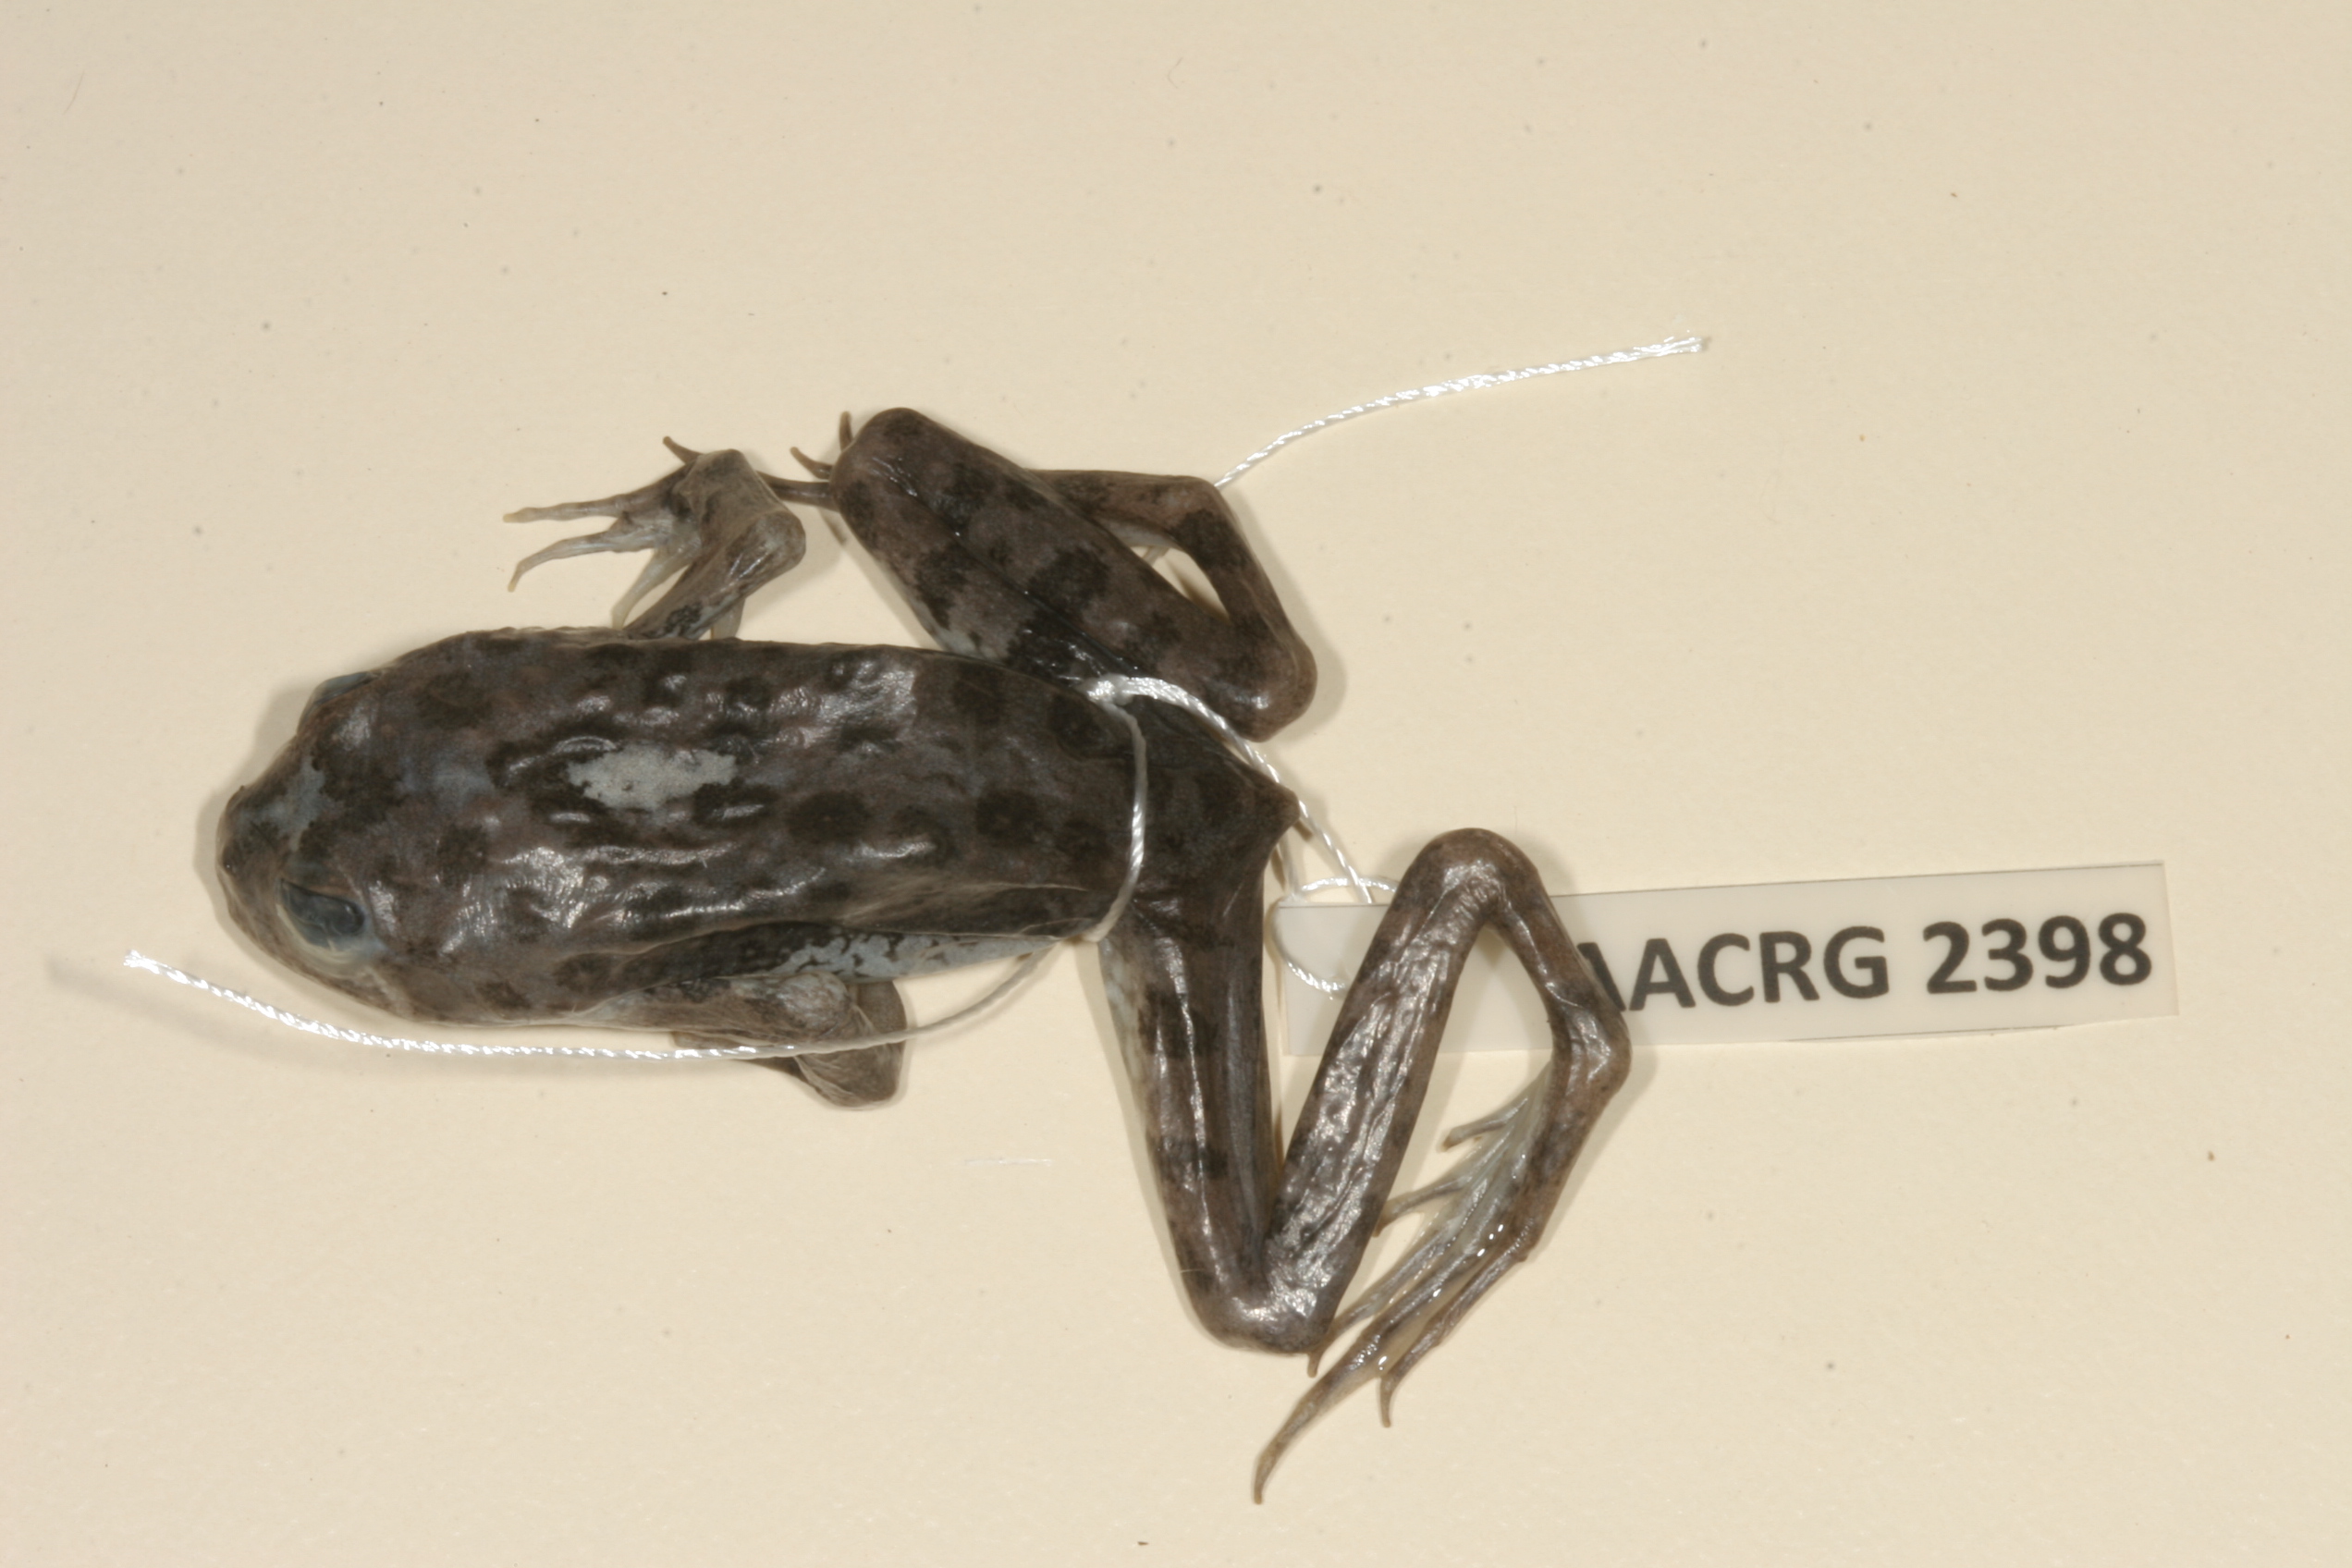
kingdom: Animalia
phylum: Chordata
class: Amphibia
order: Anura
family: Pyxicephalidae
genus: Amietia
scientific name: Amietia vertebralis
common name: Drakensberg stream frog
